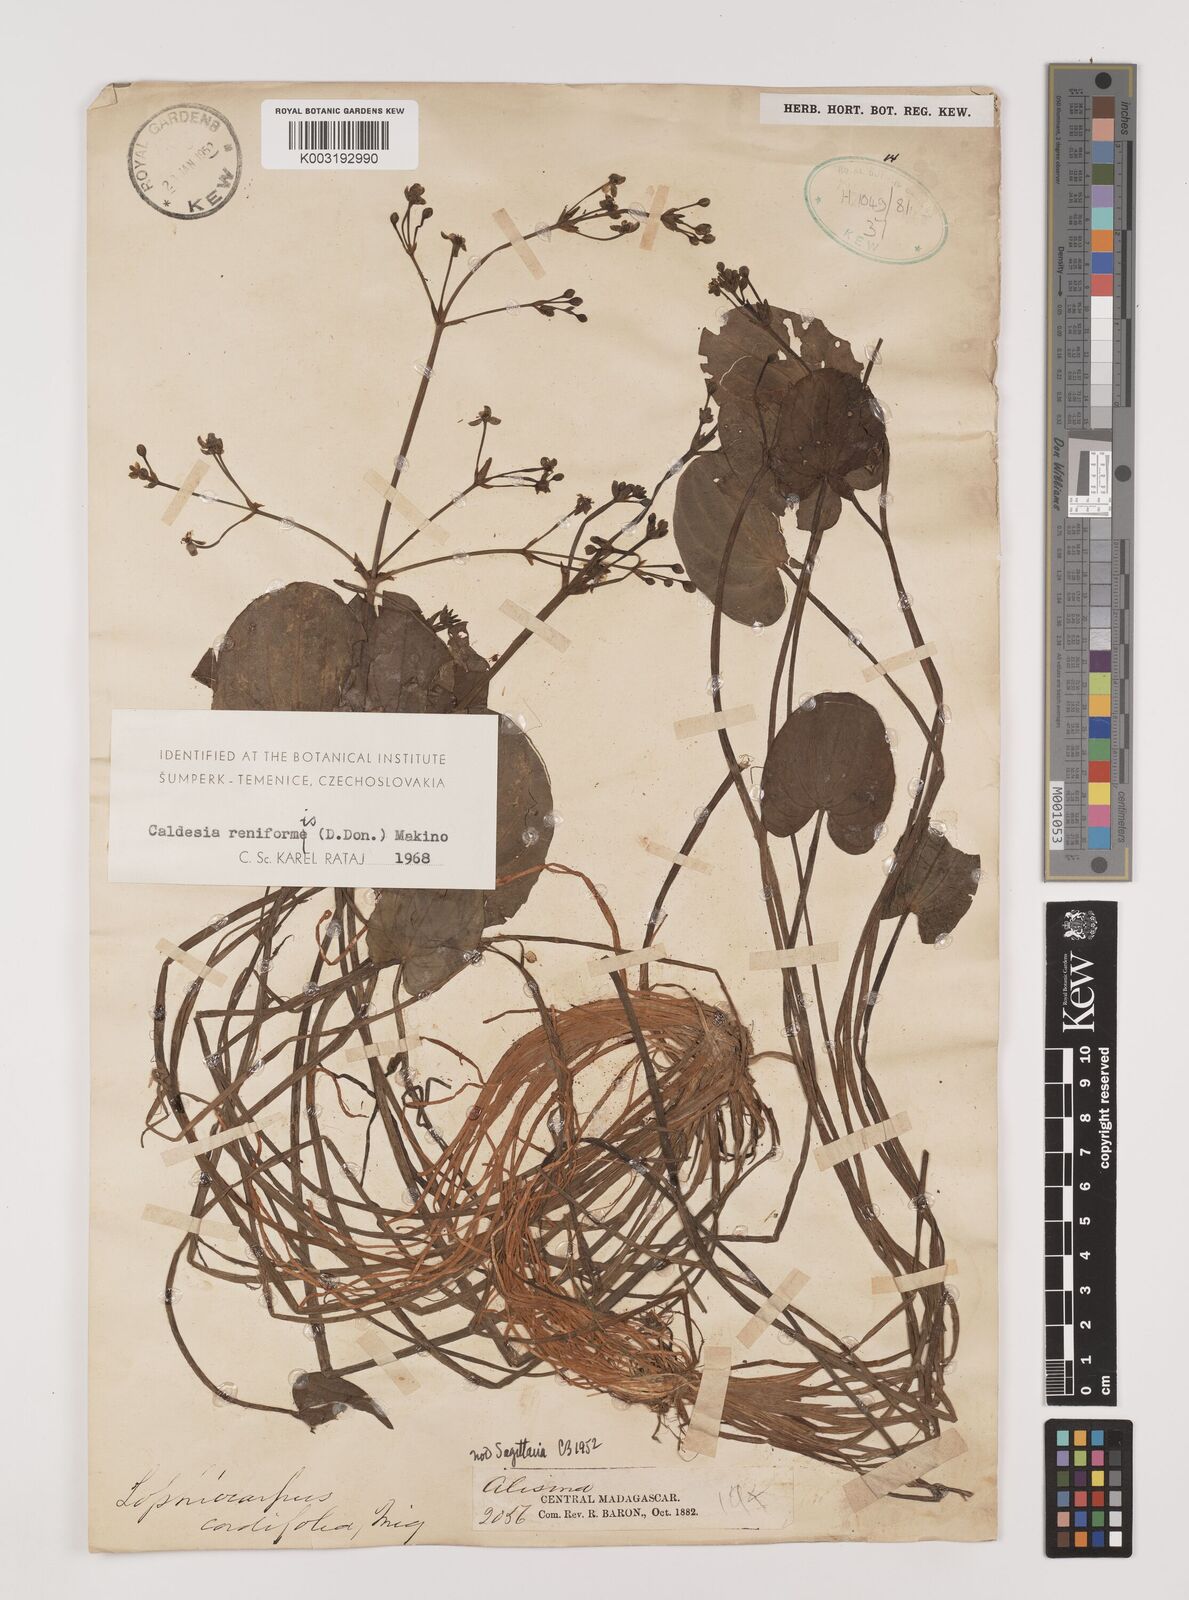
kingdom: Plantae
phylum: Tracheophyta
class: Liliopsida
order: Alismatales
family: Alismataceae
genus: Caldesia
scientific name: Caldesia parnassifolia
